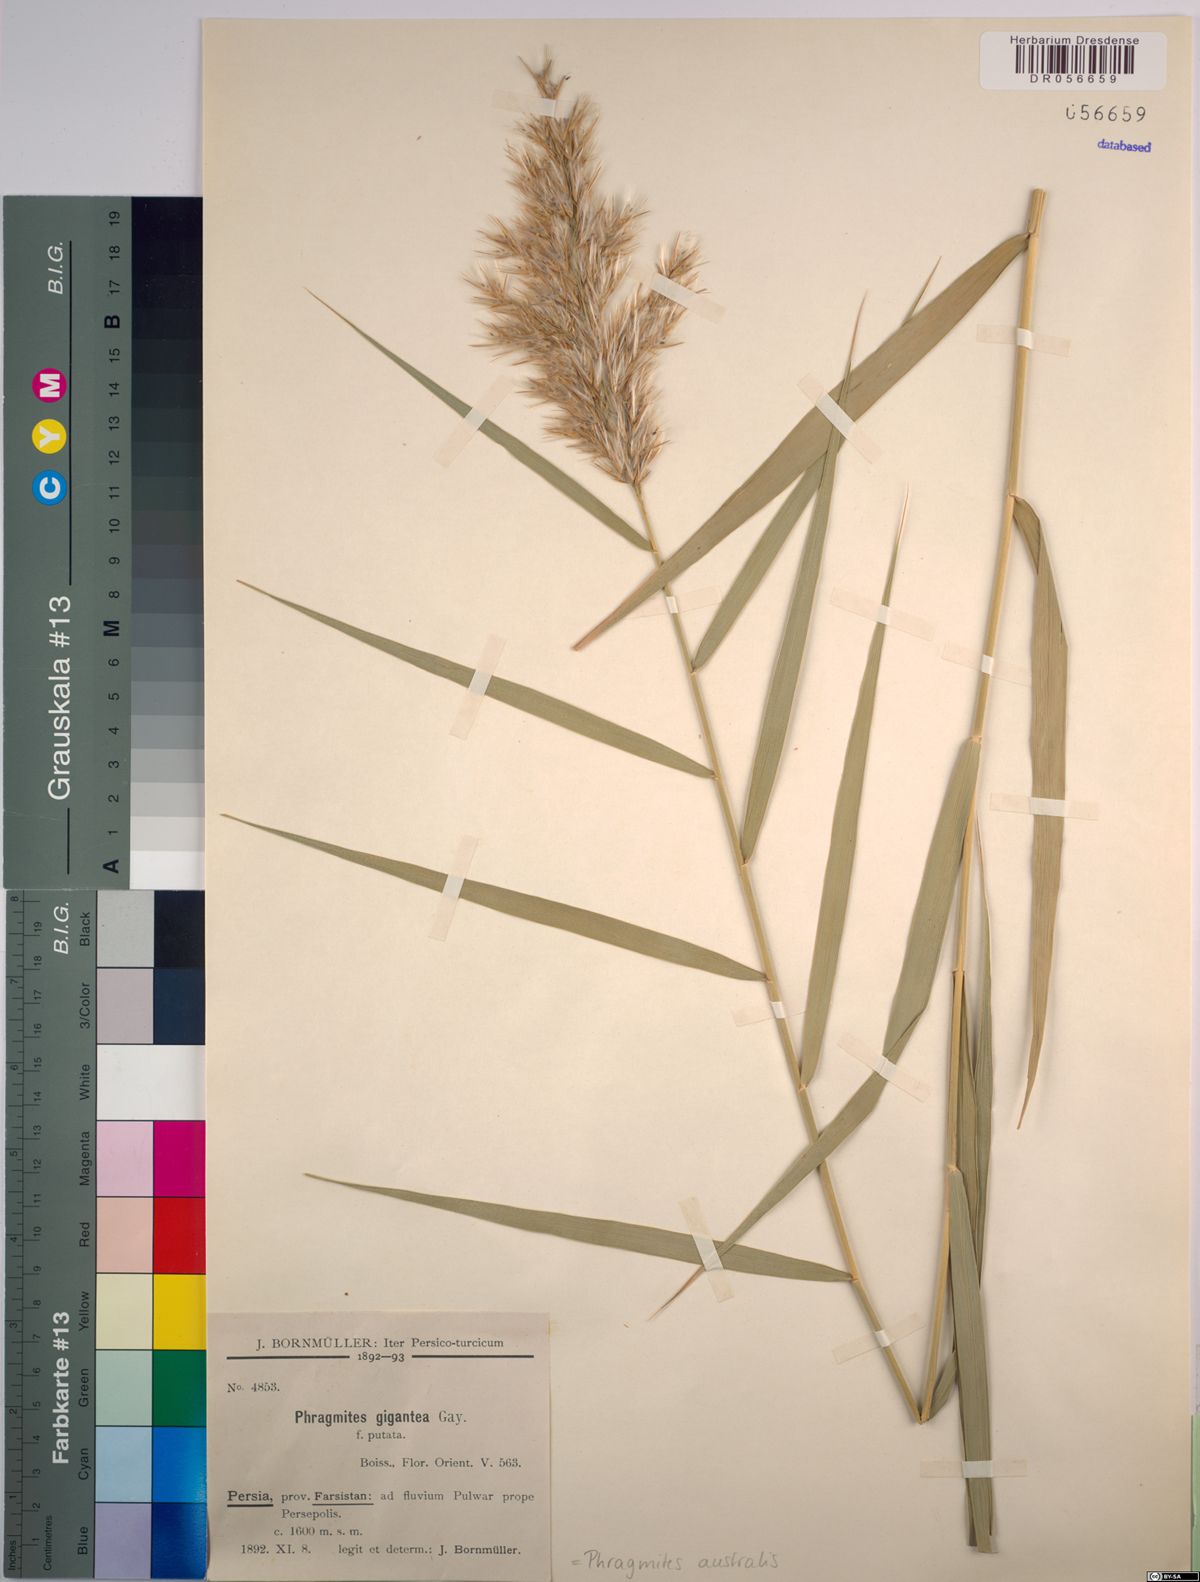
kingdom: Plantae
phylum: Tracheophyta
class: Liliopsida
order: Poales
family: Poaceae
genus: Phragmites
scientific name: Phragmites australis
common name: Common reed
